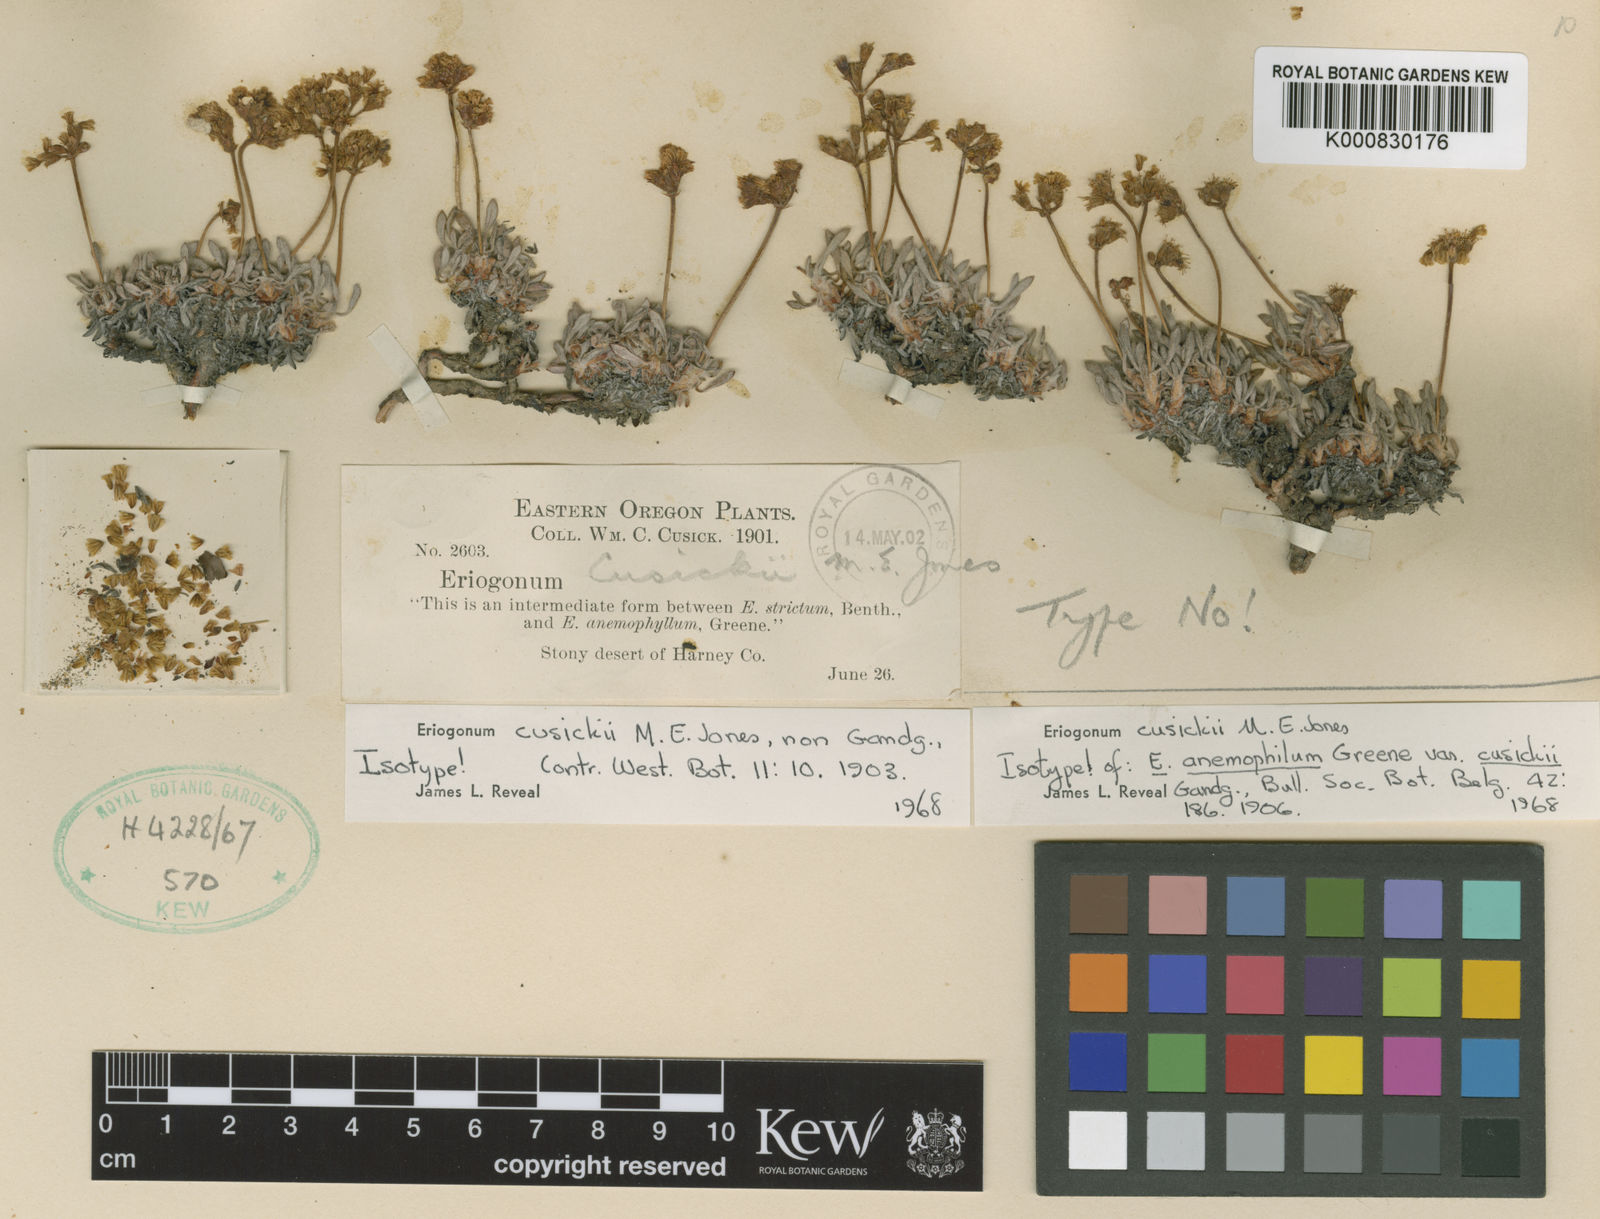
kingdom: Plantae
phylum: Tracheophyta
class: Magnoliopsida
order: Caryophyllales
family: Polygonaceae
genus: Eriogonum
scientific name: Eriogonum cusickii
